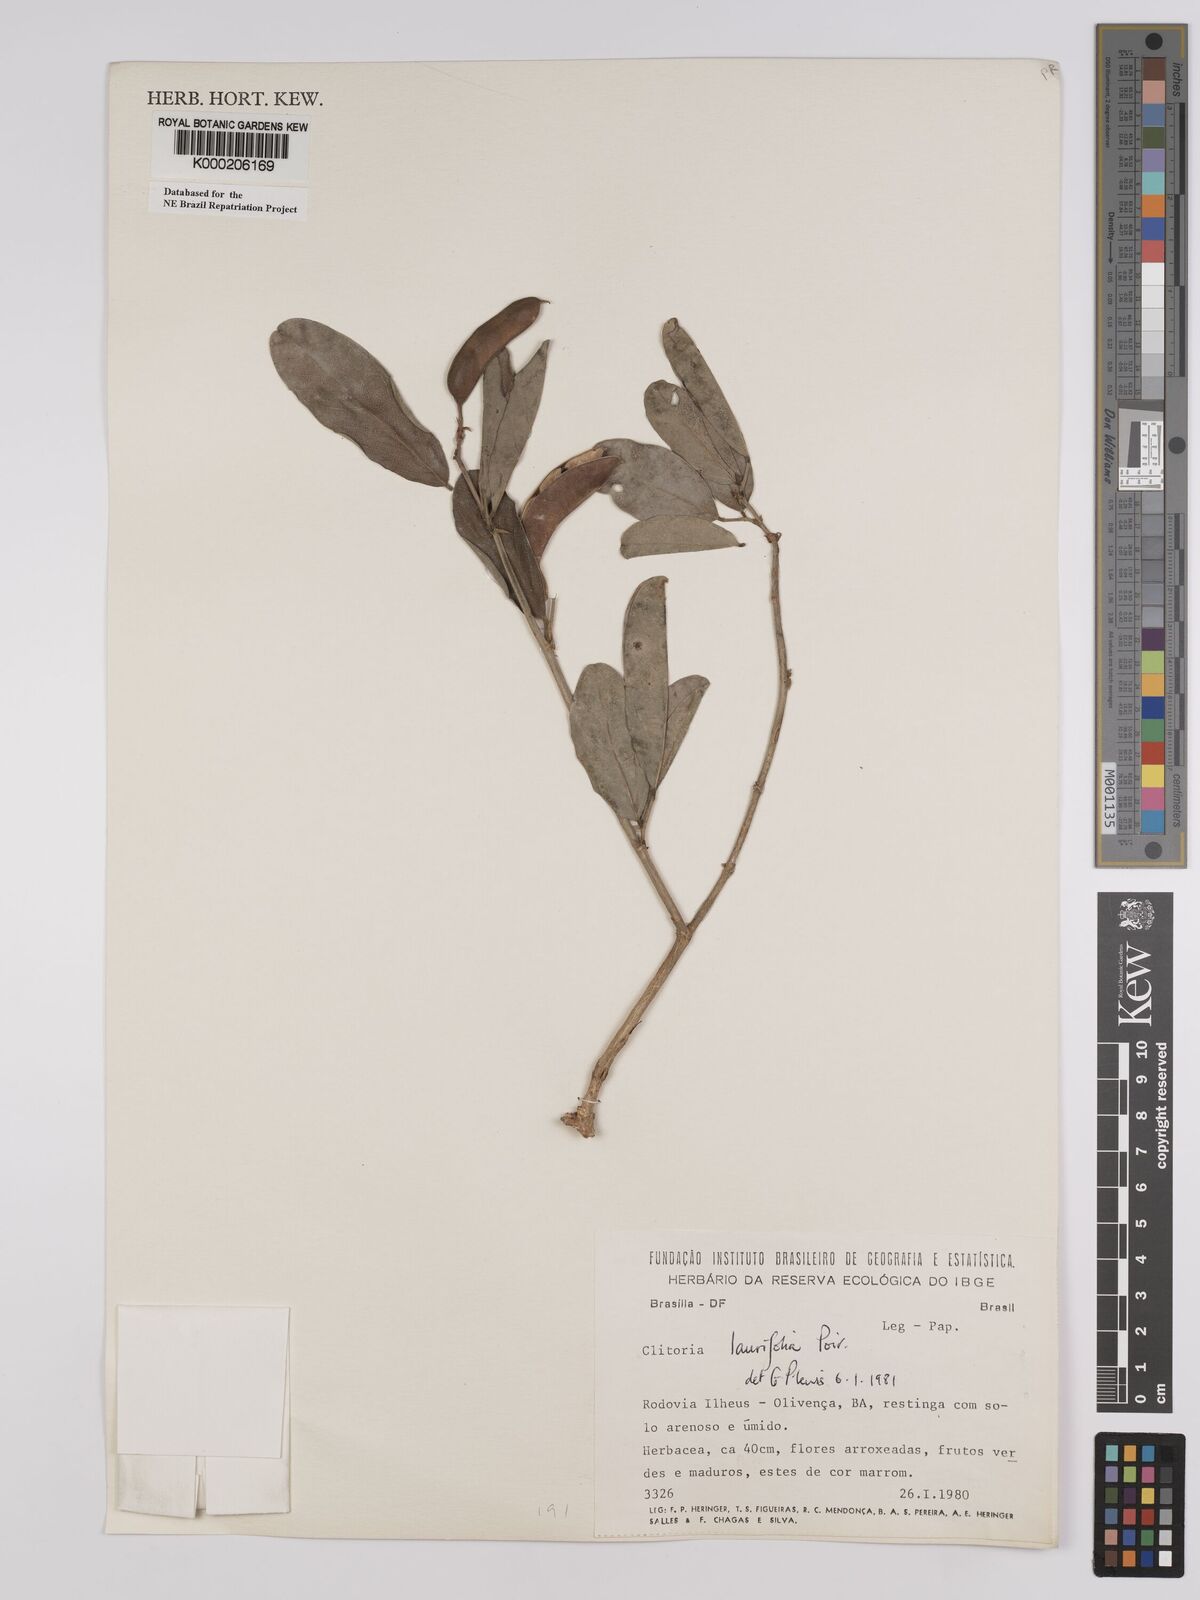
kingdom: Plantae
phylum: Tracheophyta
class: Magnoliopsida
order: Fabales
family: Fabaceae
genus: Clitoria
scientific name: Clitoria laurifolia
